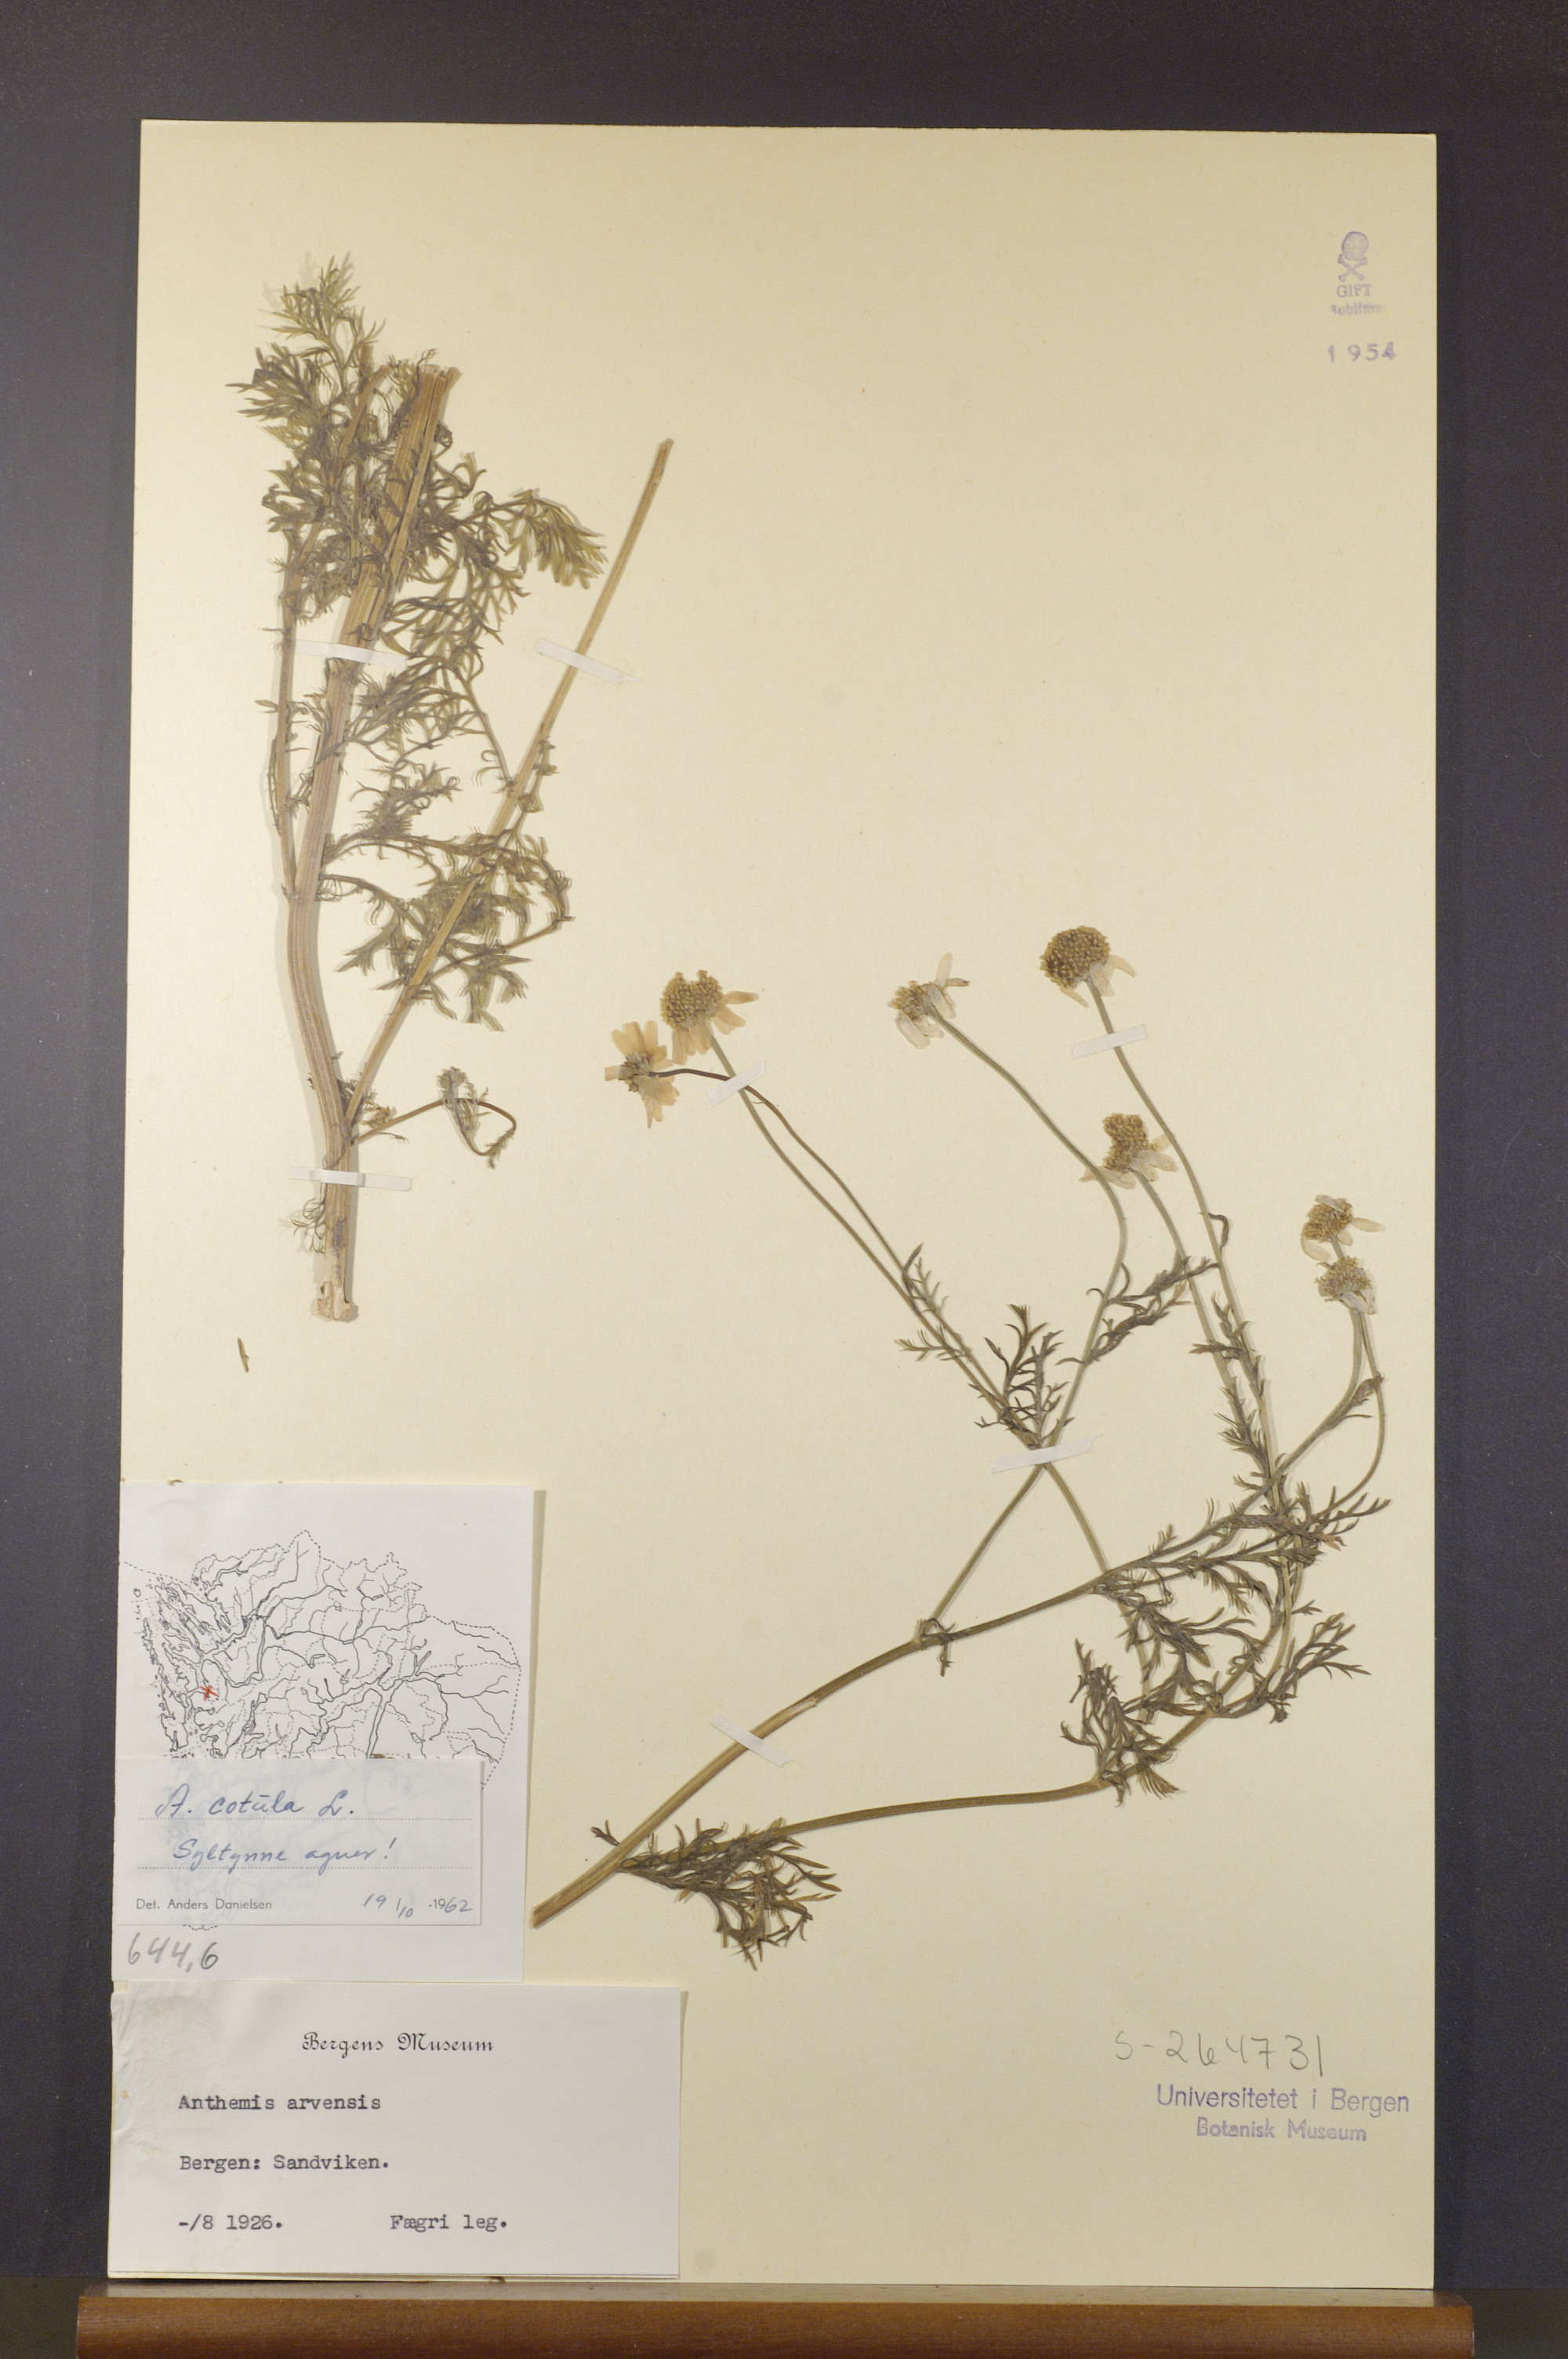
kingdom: Plantae
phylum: Tracheophyta
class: Magnoliopsida
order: Asterales
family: Asteraceae
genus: Anthemis
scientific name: Anthemis cotula
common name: Stinking chamomile
